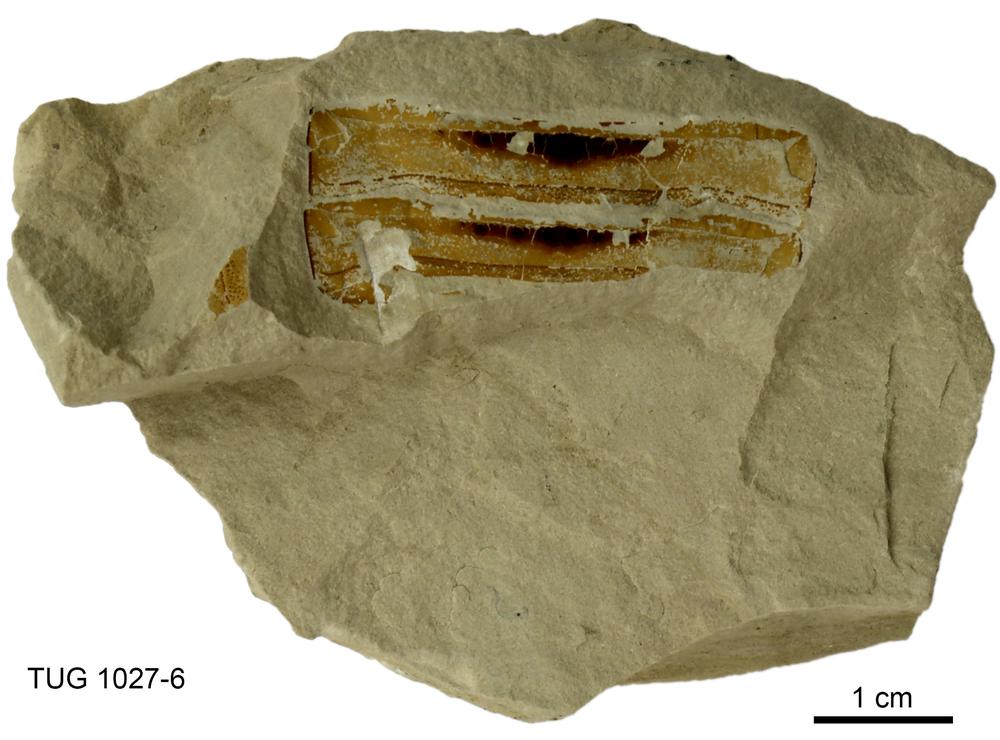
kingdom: Animalia
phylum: Arthropoda
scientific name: Arthropoda
